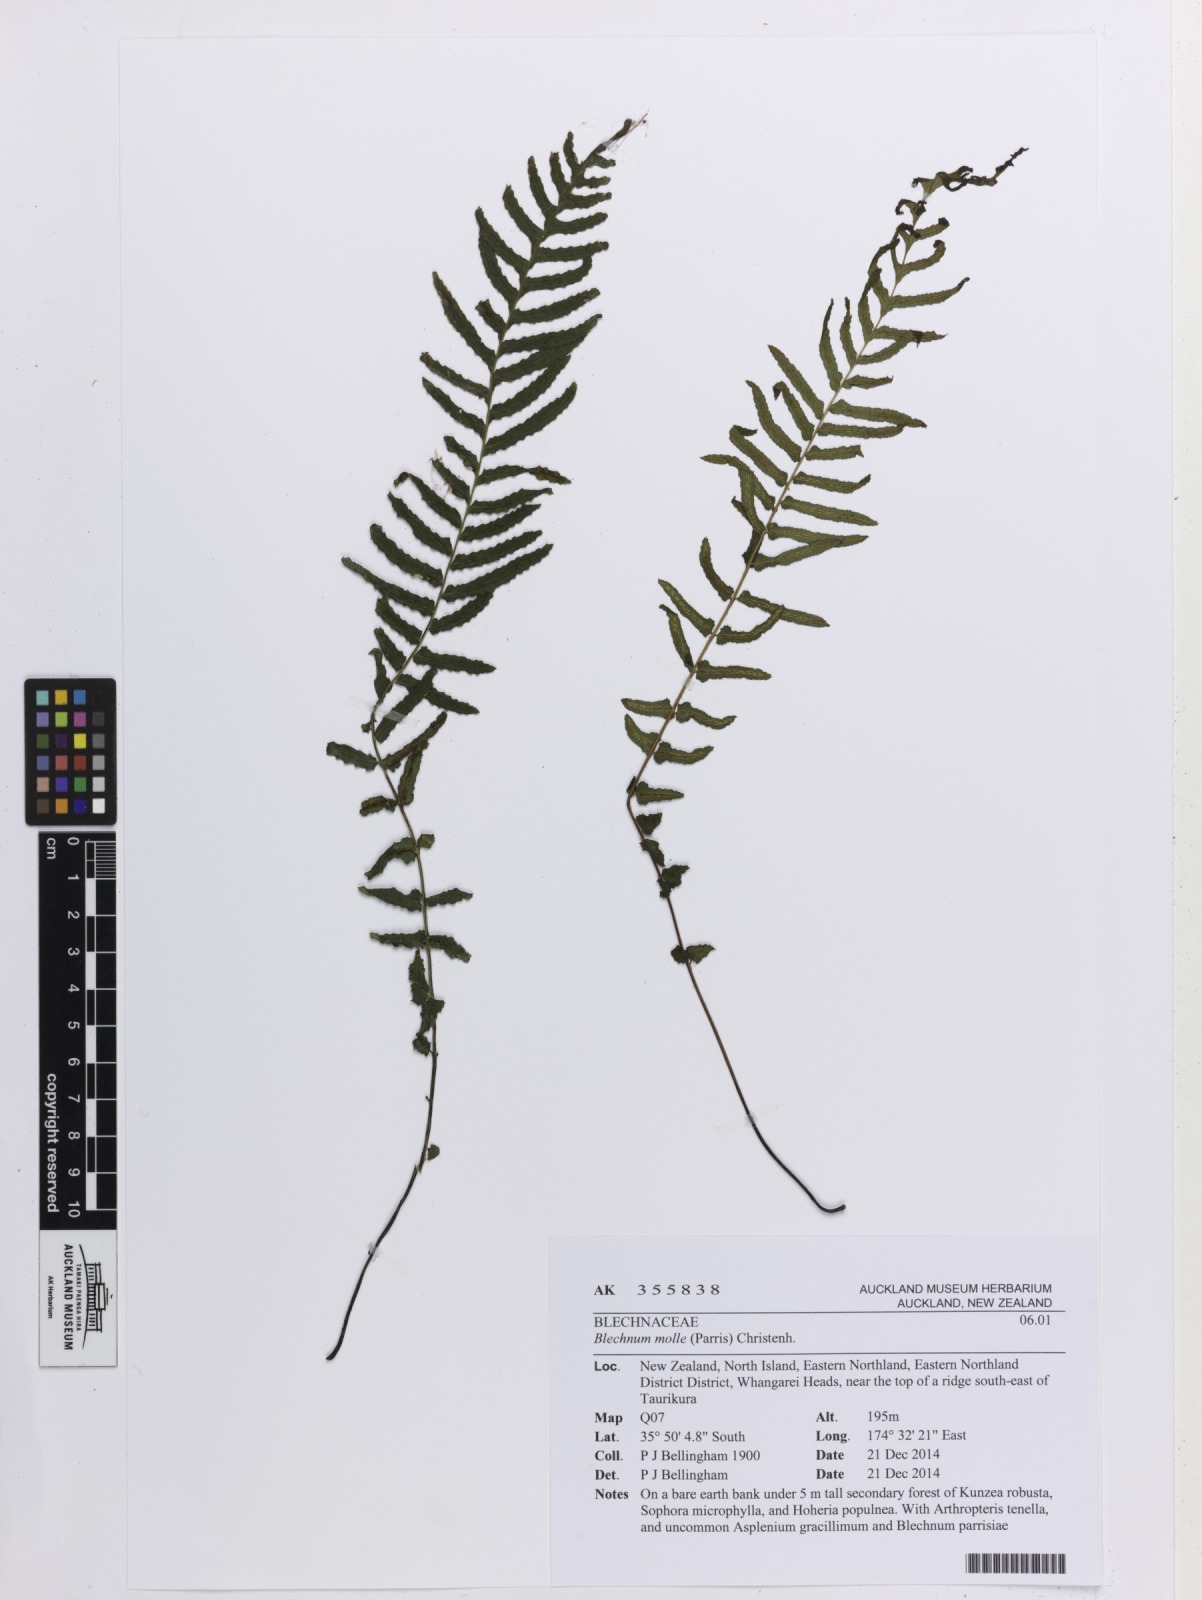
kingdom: Plantae
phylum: Tracheophyta
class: Polypodiopsida
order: Polypodiales
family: Blechnaceae
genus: Doodia
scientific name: Doodia mollis
